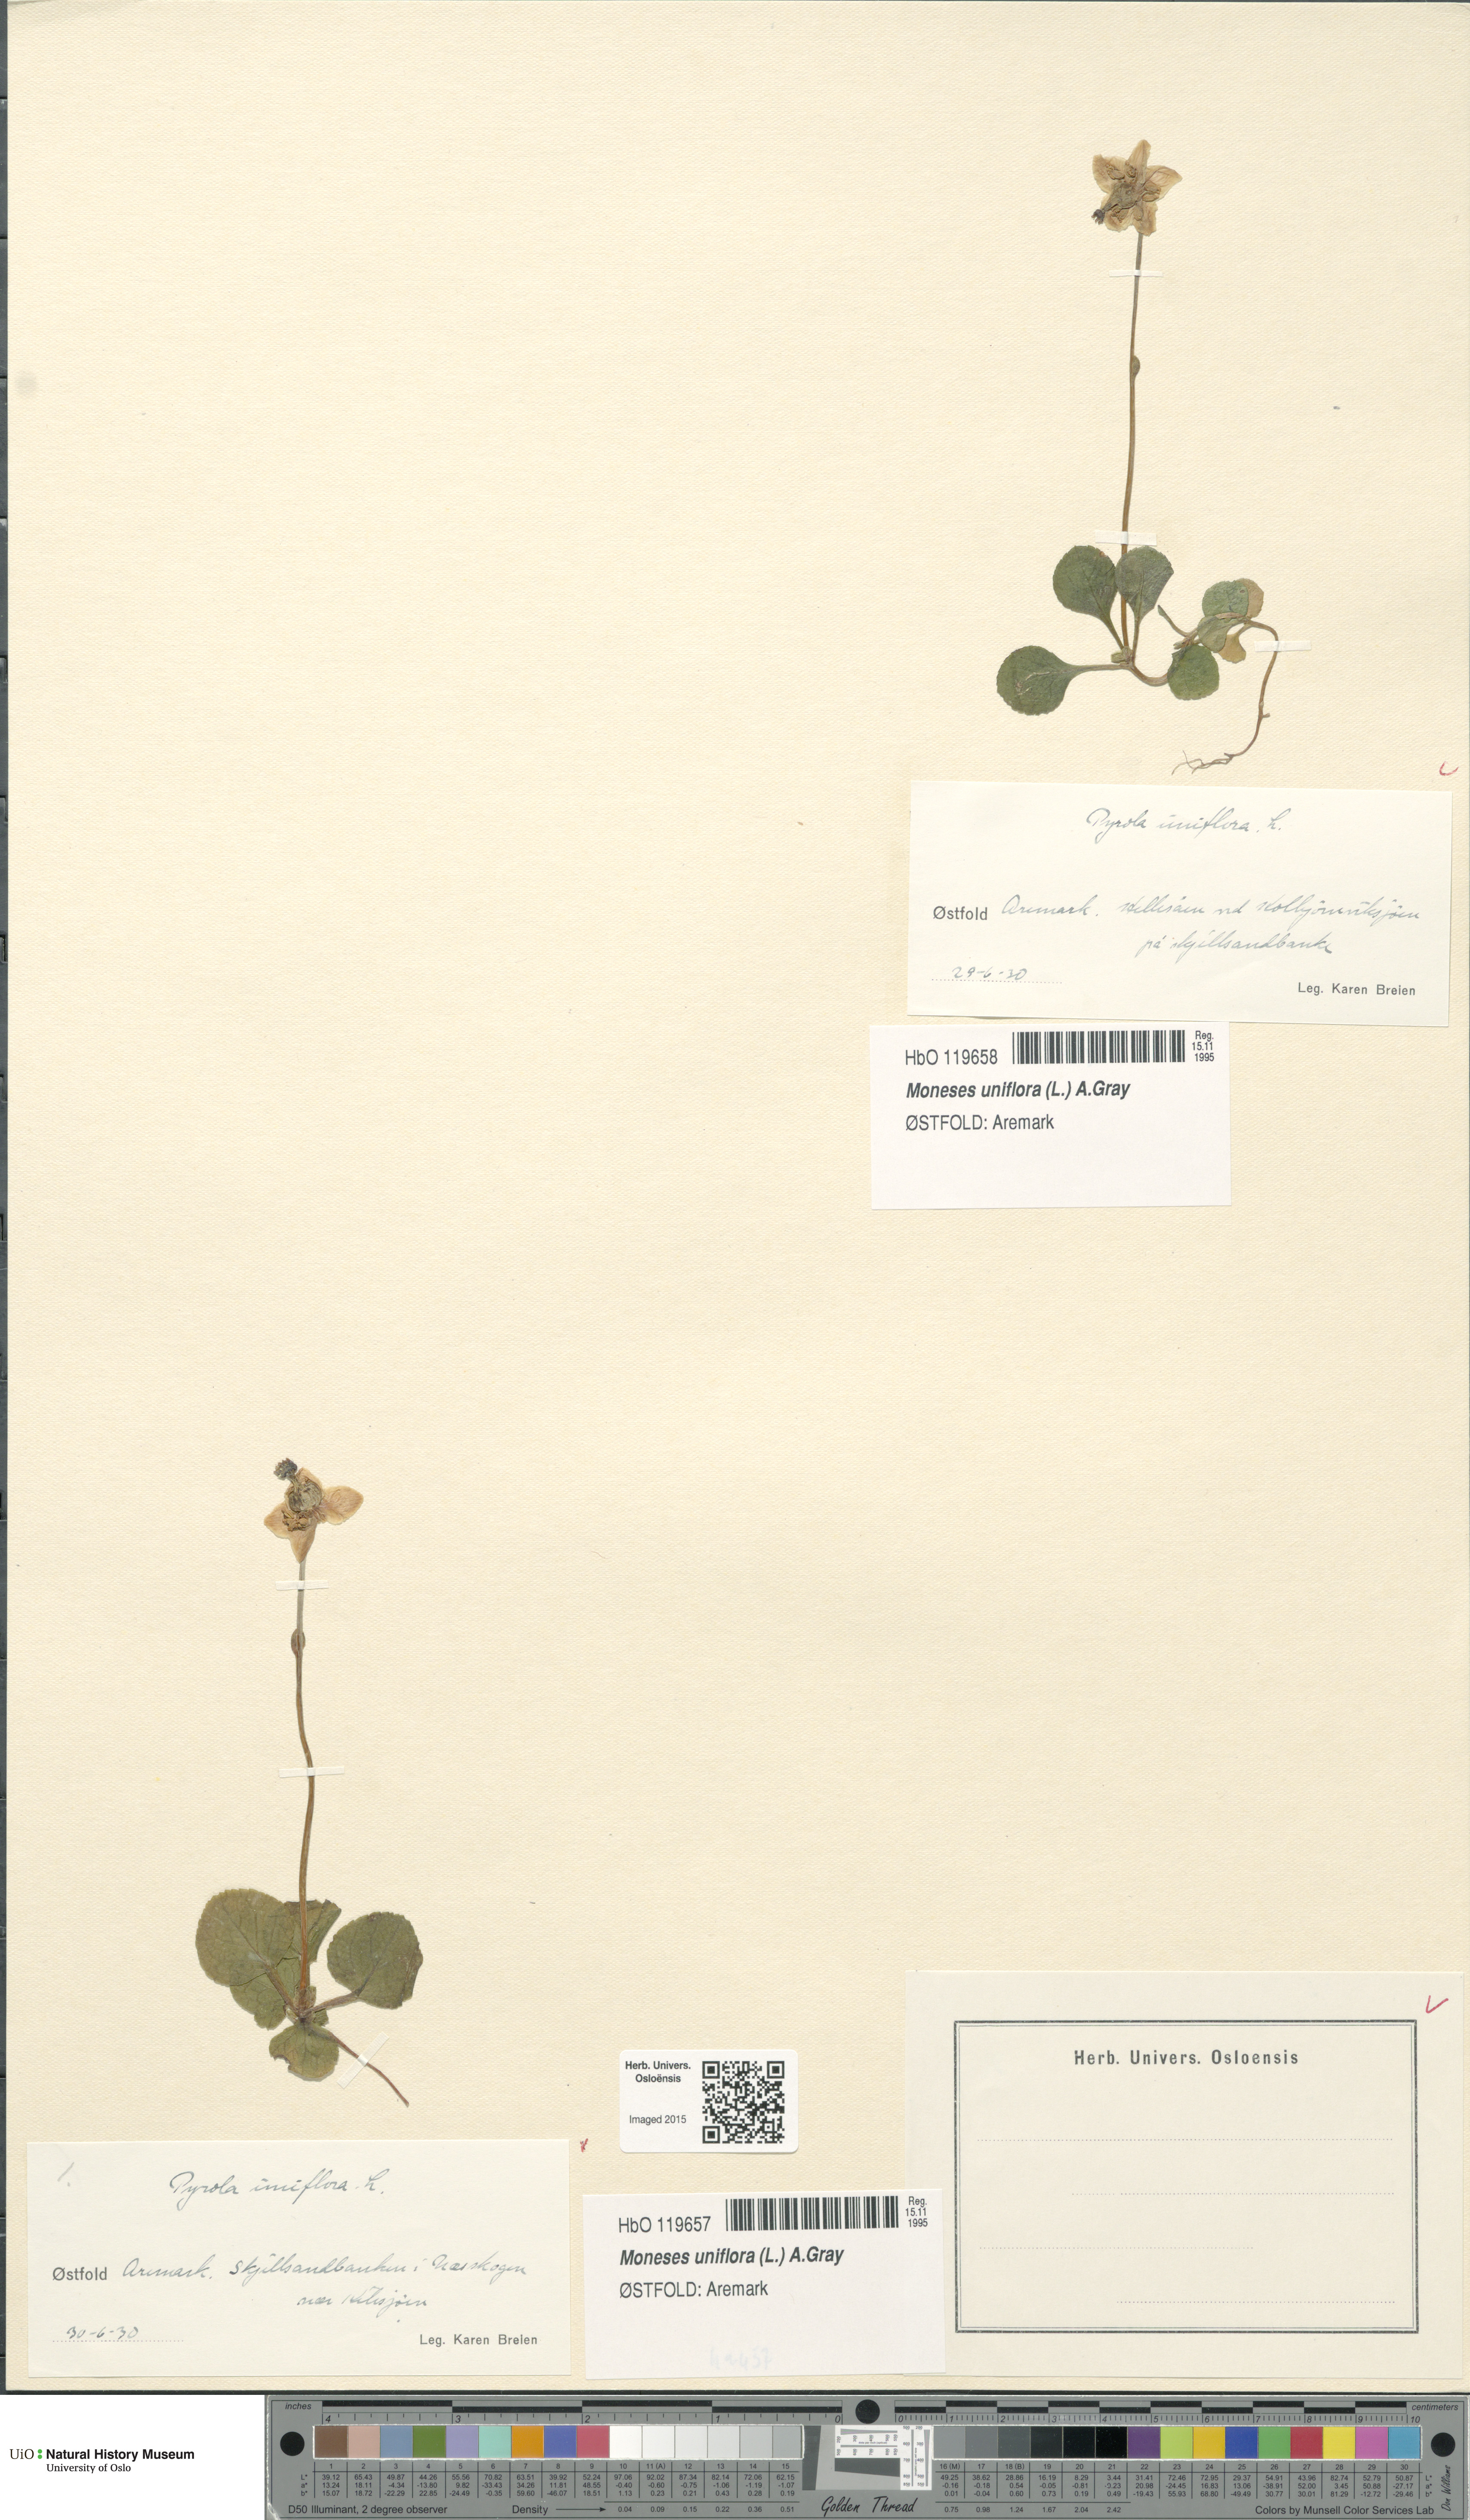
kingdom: Plantae
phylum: Tracheophyta
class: Magnoliopsida
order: Ericales
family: Ericaceae
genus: Moneses
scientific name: Moneses uniflora
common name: One-flowered wintergreen
